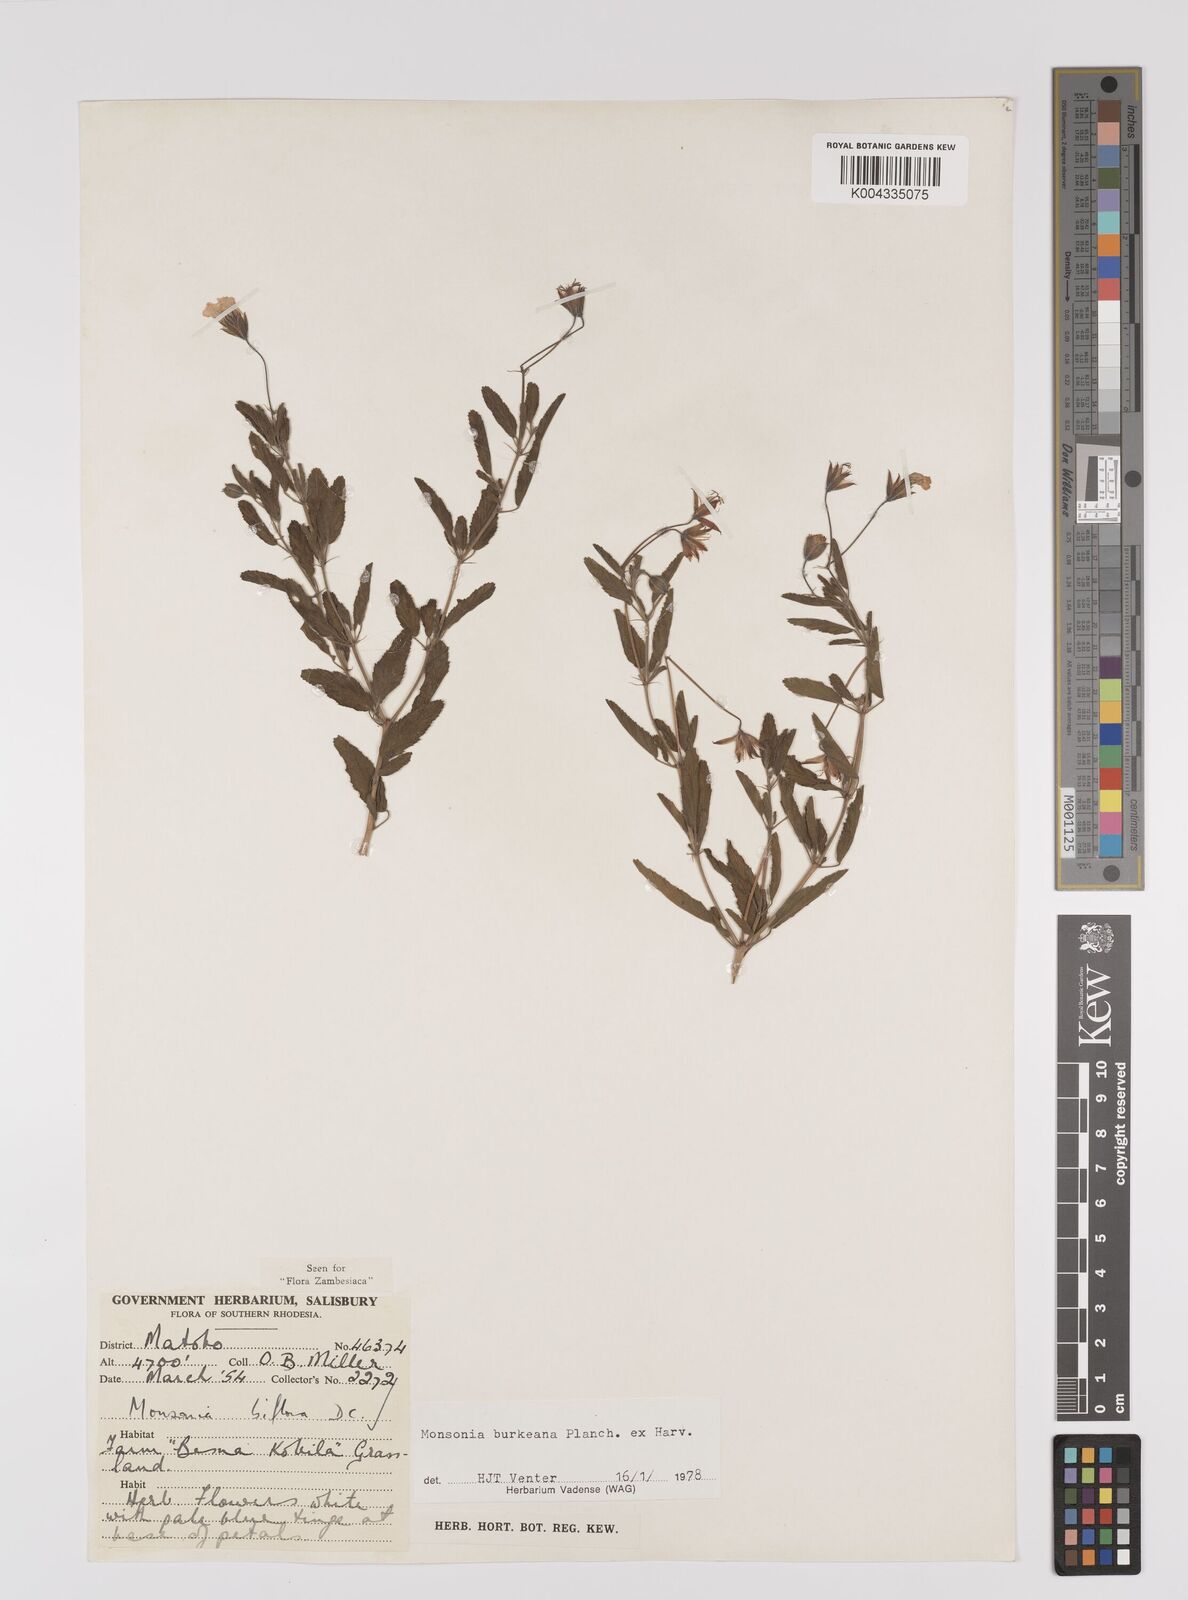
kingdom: Plantae
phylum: Tracheophyta
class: Magnoliopsida
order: Geraniales
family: Geraniaceae
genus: Monsonia
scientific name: Monsonia biflora
